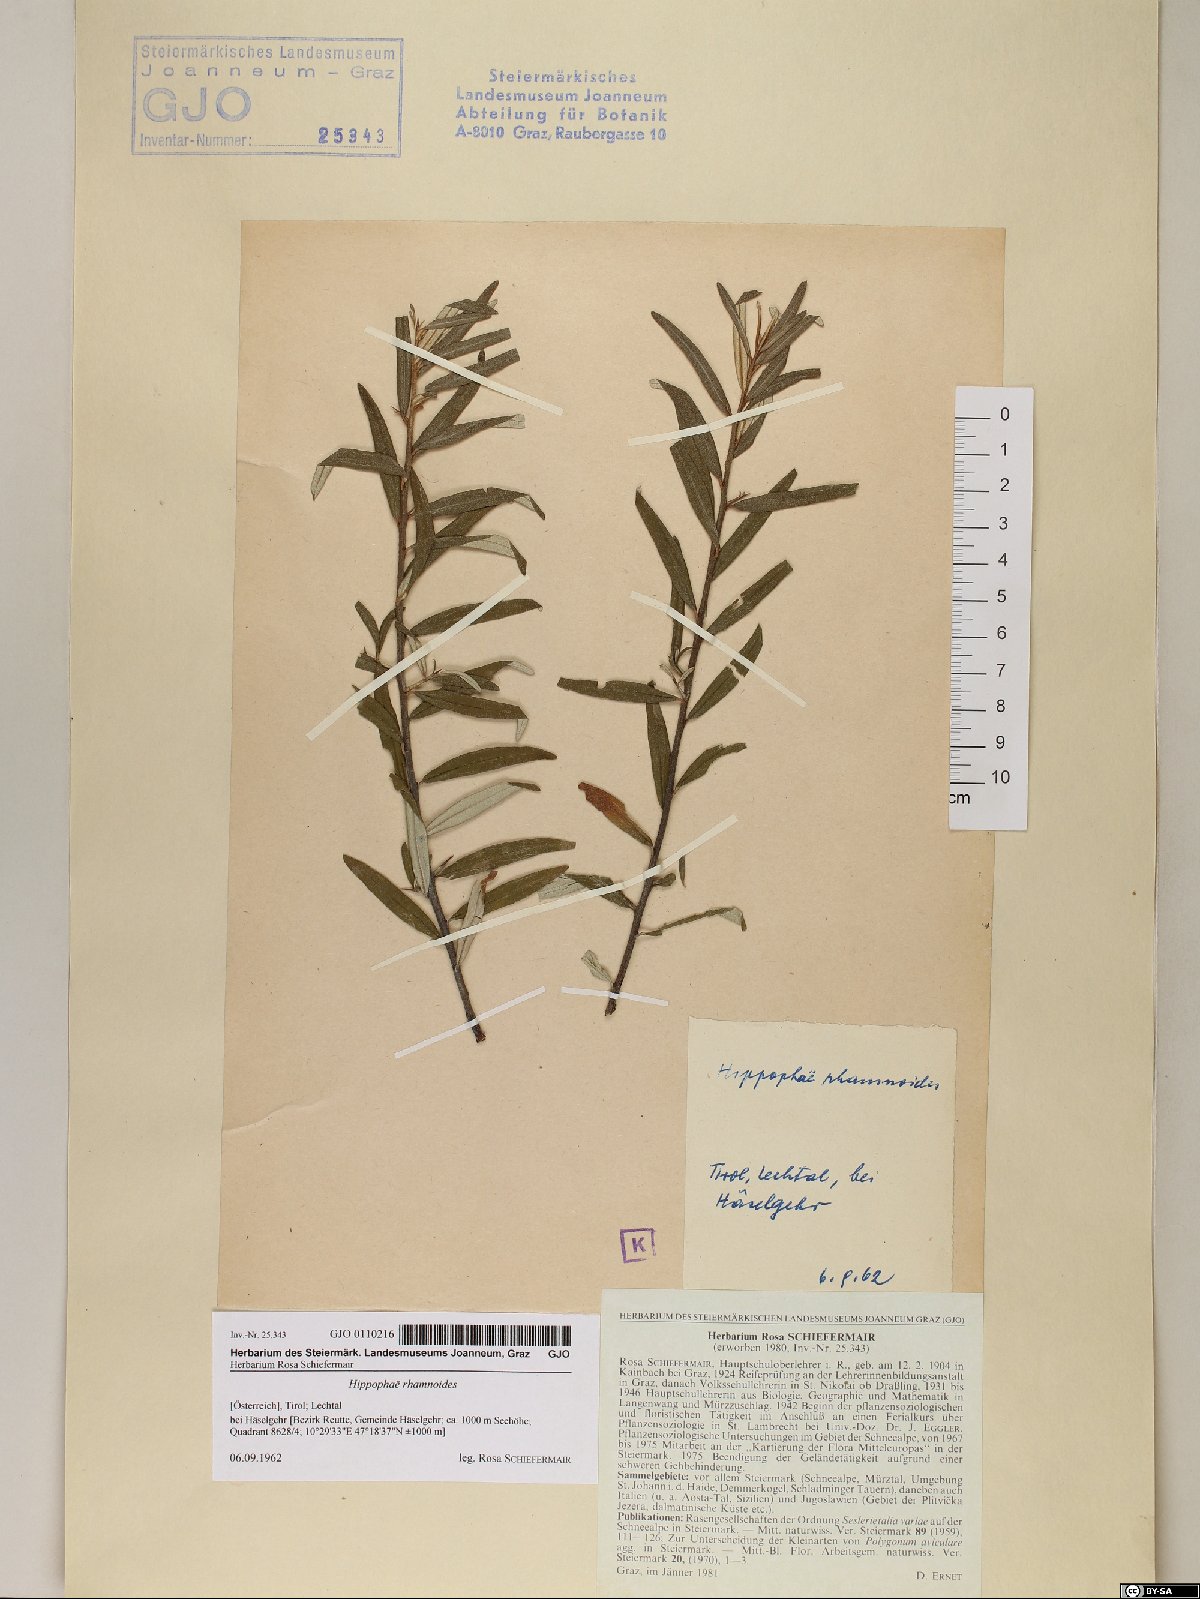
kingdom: Plantae
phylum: Tracheophyta
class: Magnoliopsida
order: Rosales
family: Elaeagnaceae
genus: Hippophae
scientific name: Hippophae rhamnoides
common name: Sea-buckthorn
